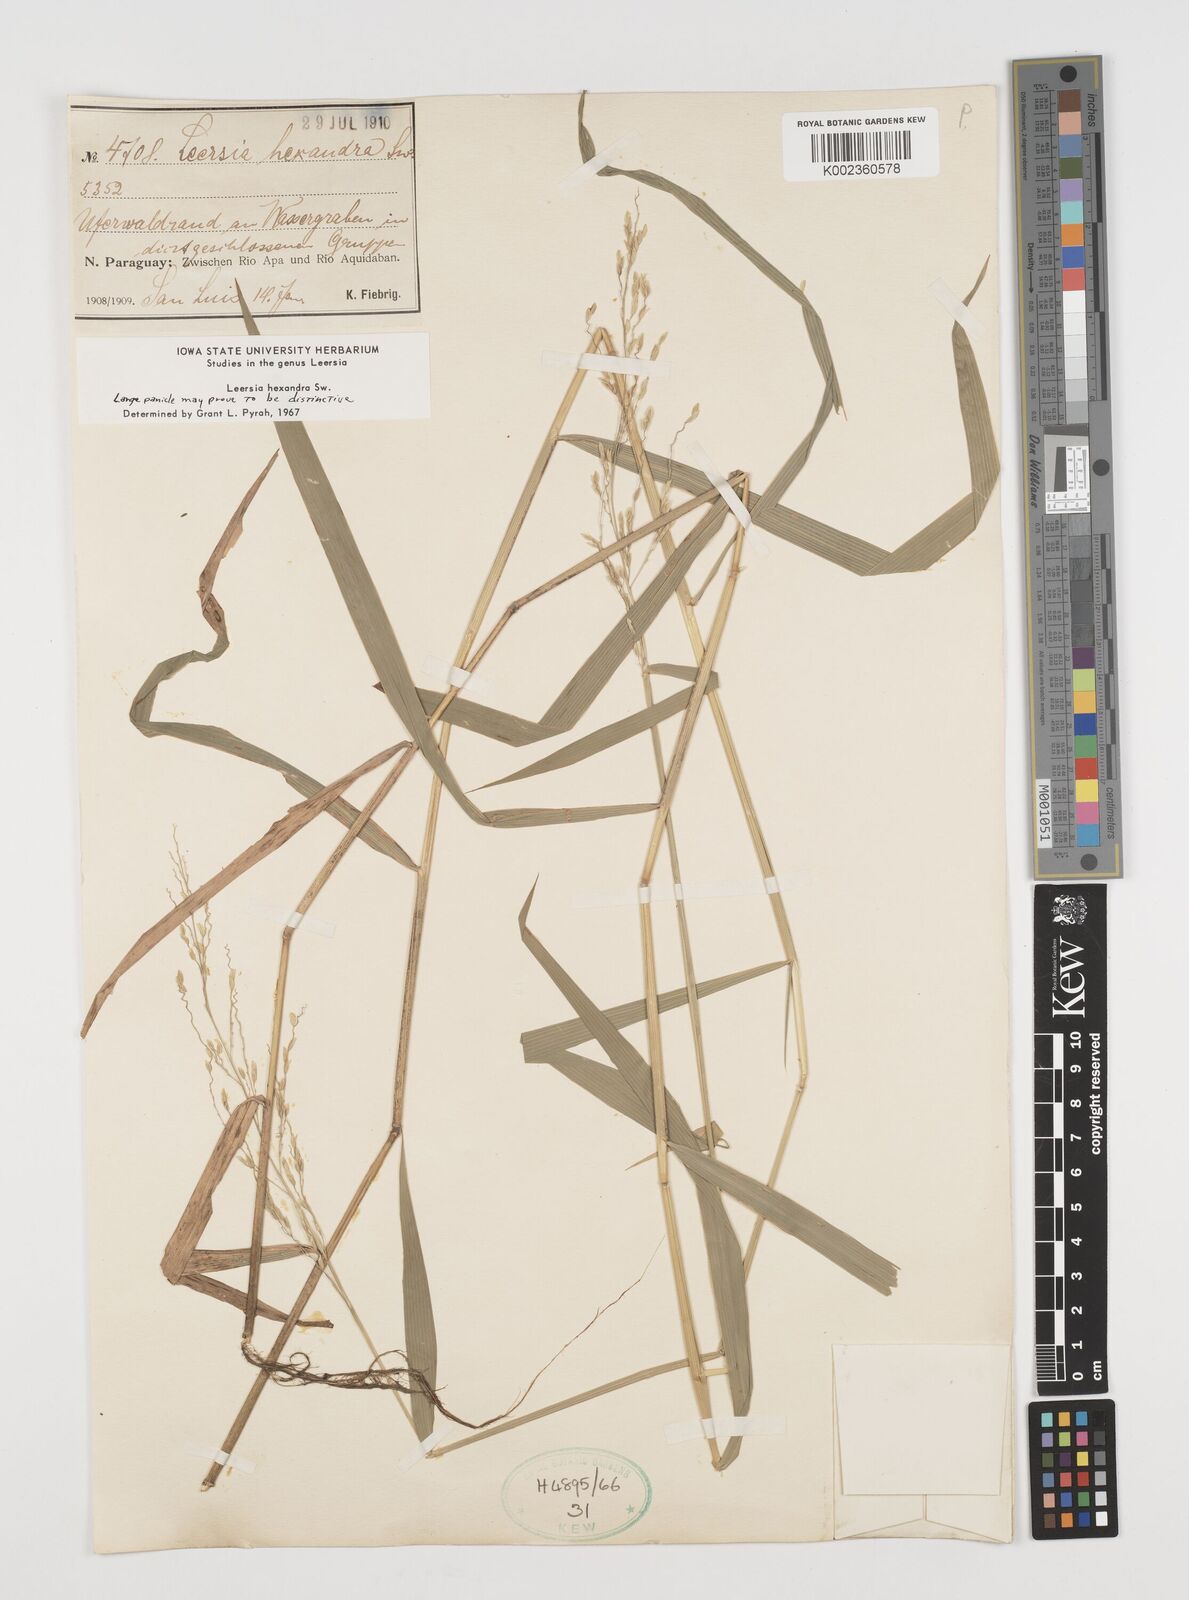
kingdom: Plantae
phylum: Tracheophyta
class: Liliopsida
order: Poales
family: Poaceae
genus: Leersia
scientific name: Leersia hexandra
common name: Southern cut grass
